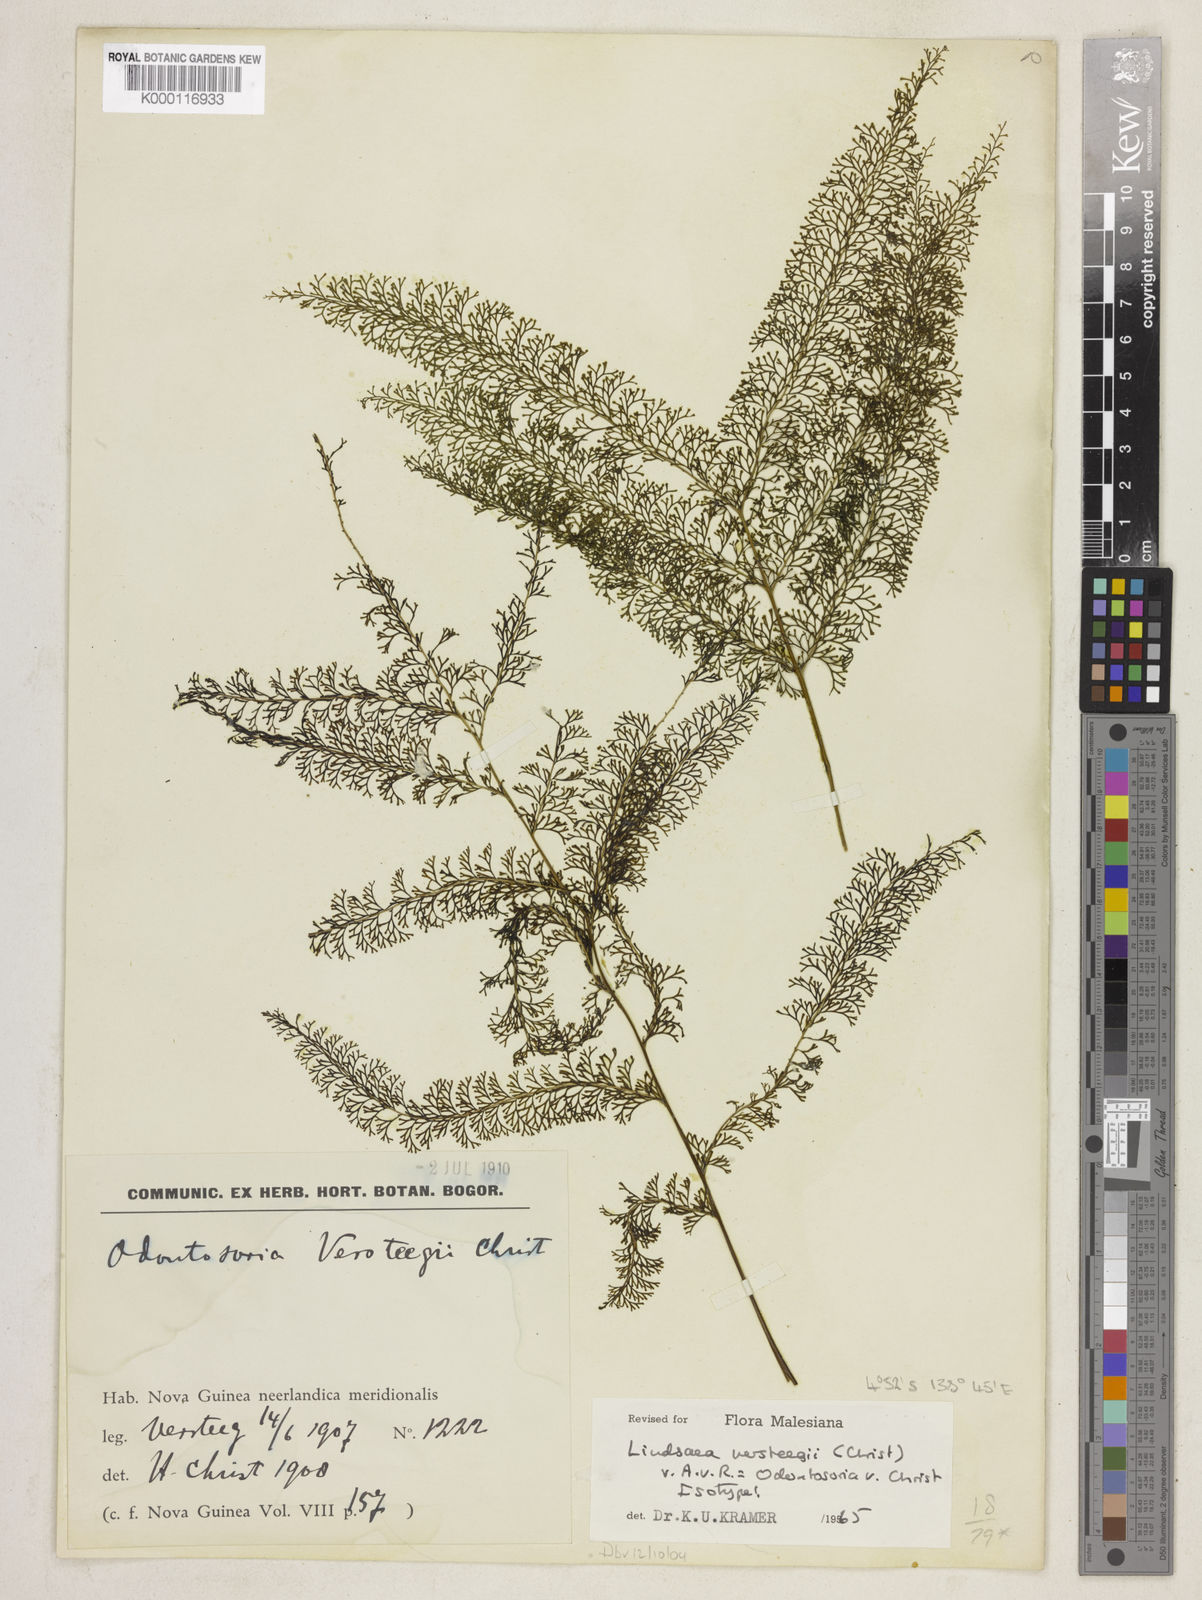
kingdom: Plantae
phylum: Tracheophyta
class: Polypodiopsida
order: Polypodiales
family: Lindsaeaceae
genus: Lindsaea
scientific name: Lindsaea versteegii
